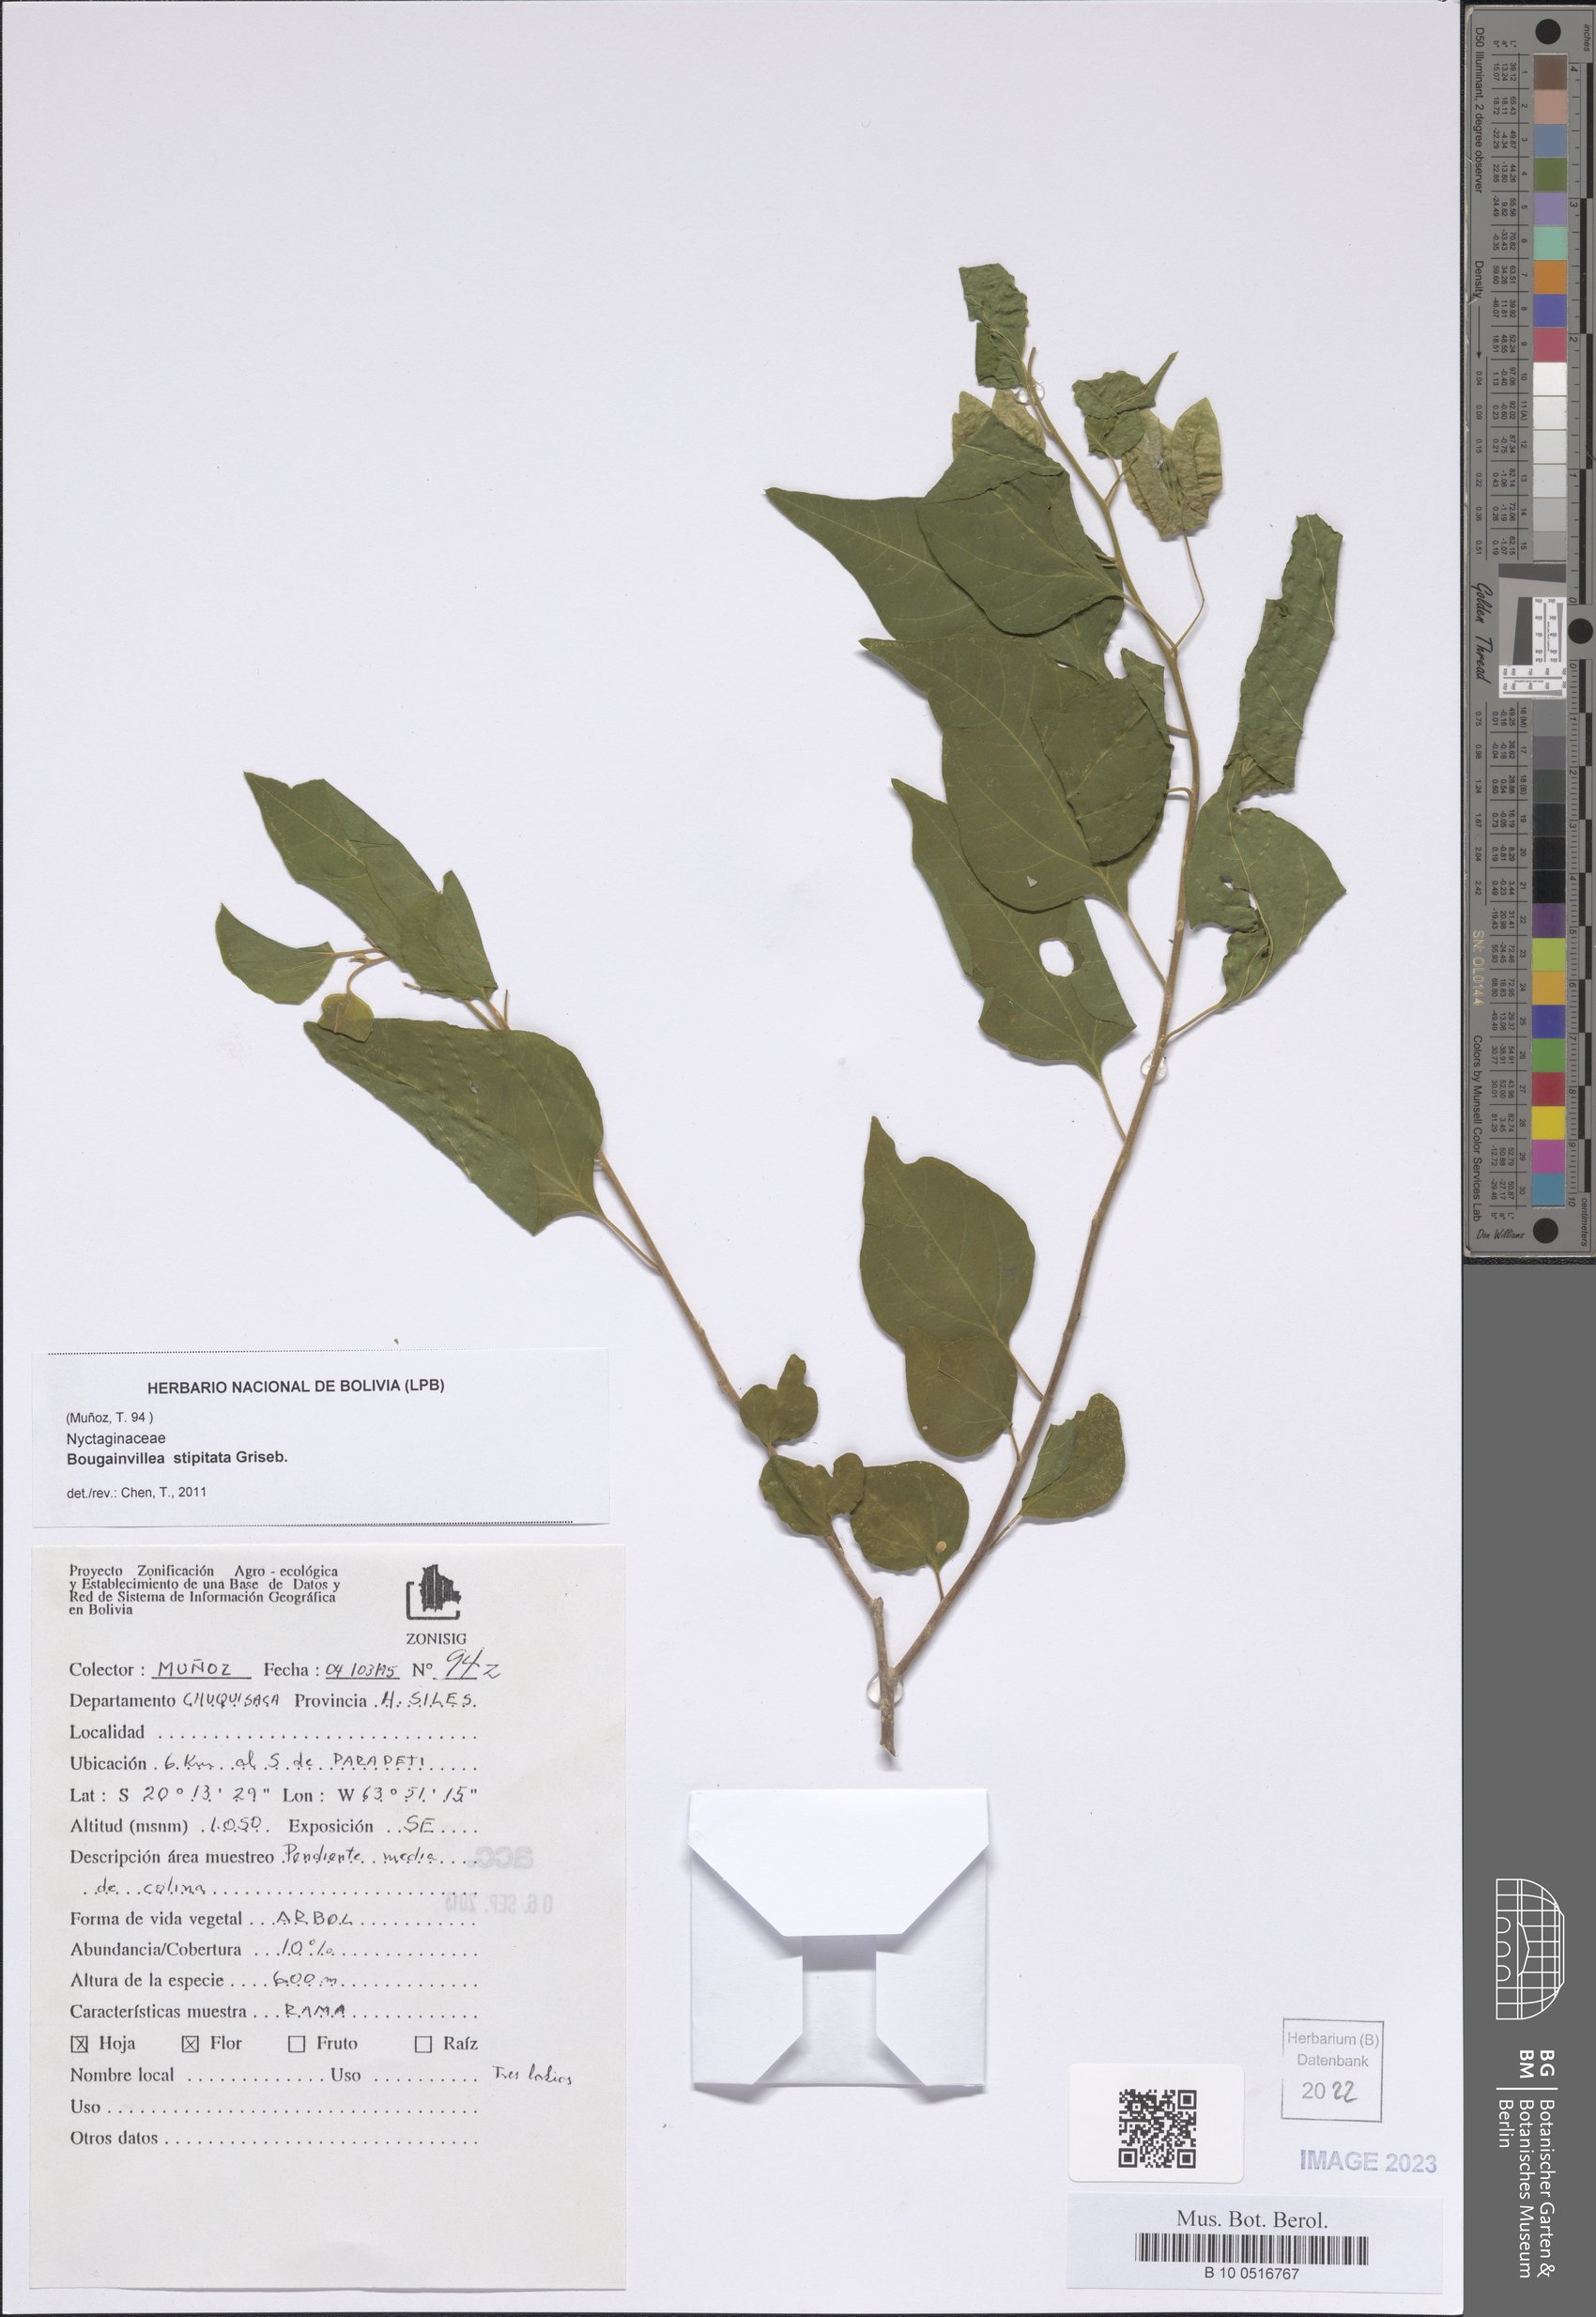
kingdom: Plantae
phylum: Tracheophyta
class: Magnoliopsida
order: Caryophyllales
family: Nyctaginaceae
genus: Bougainvillea
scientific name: Bougainvillea stipitata
